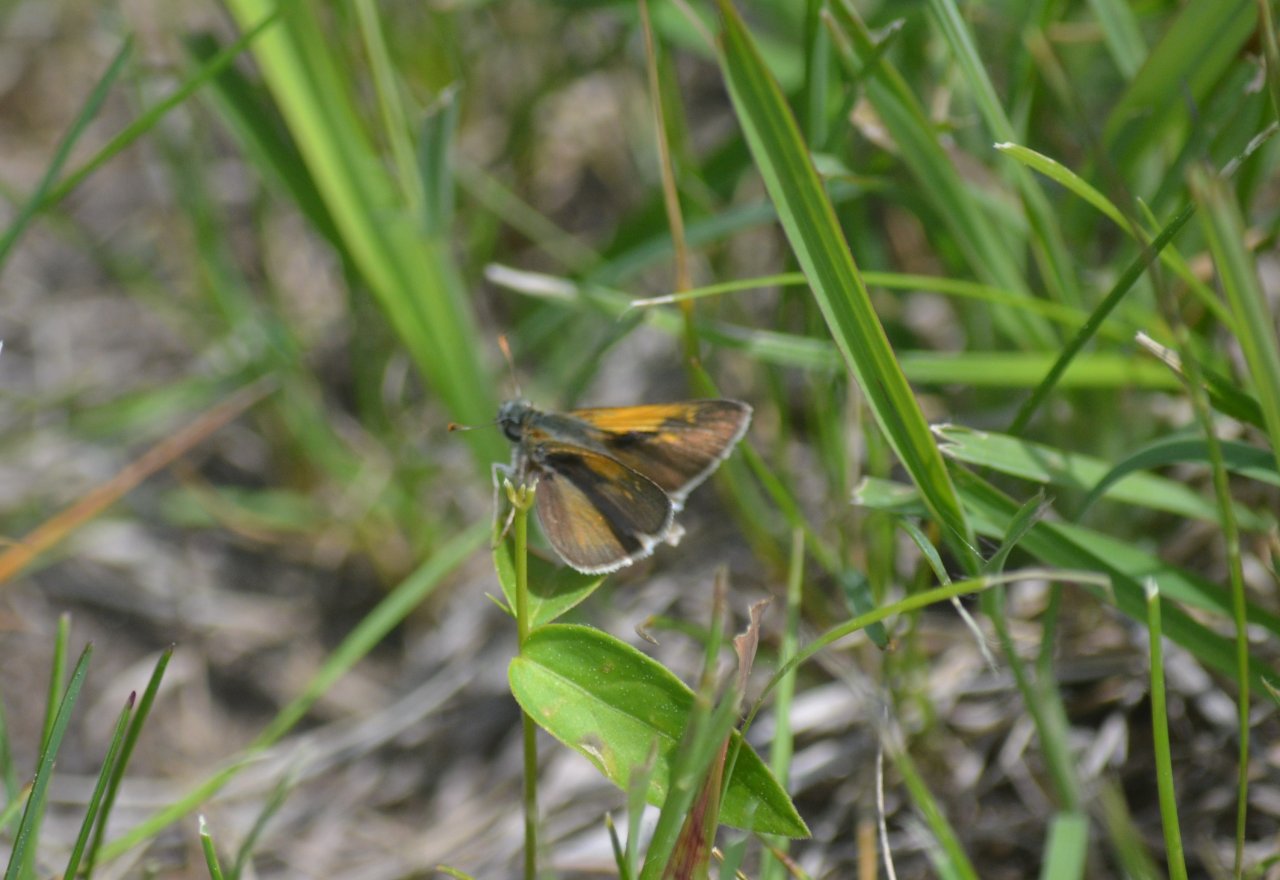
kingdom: Animalia
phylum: Arthropoda
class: Insecta
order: Lepidoptera
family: Hesperiidae
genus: Polites
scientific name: Polites themistocles
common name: Tawny-edged Skipper
